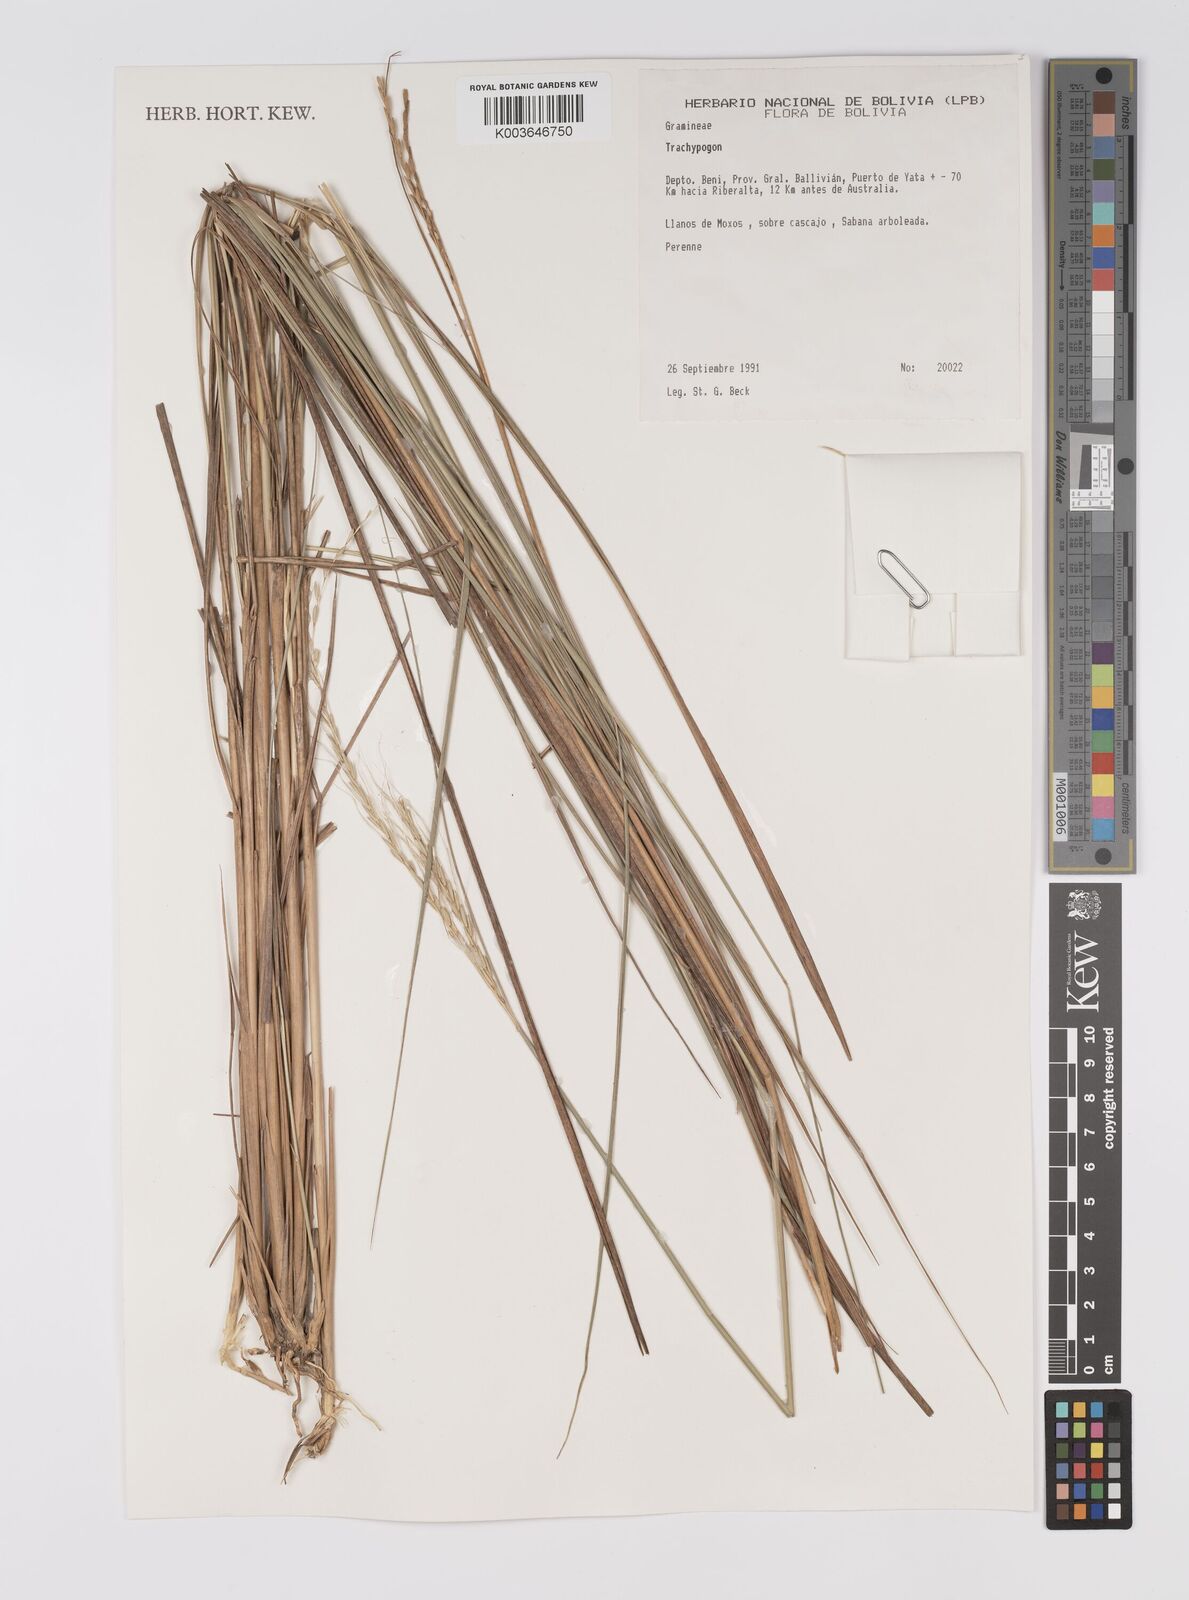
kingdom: Plantae
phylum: Tracheophyta
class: Liliopsida
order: Poales
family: Poaceae
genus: Trachypogon
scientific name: Trachypogon spicatus
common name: Crinkle-awn
